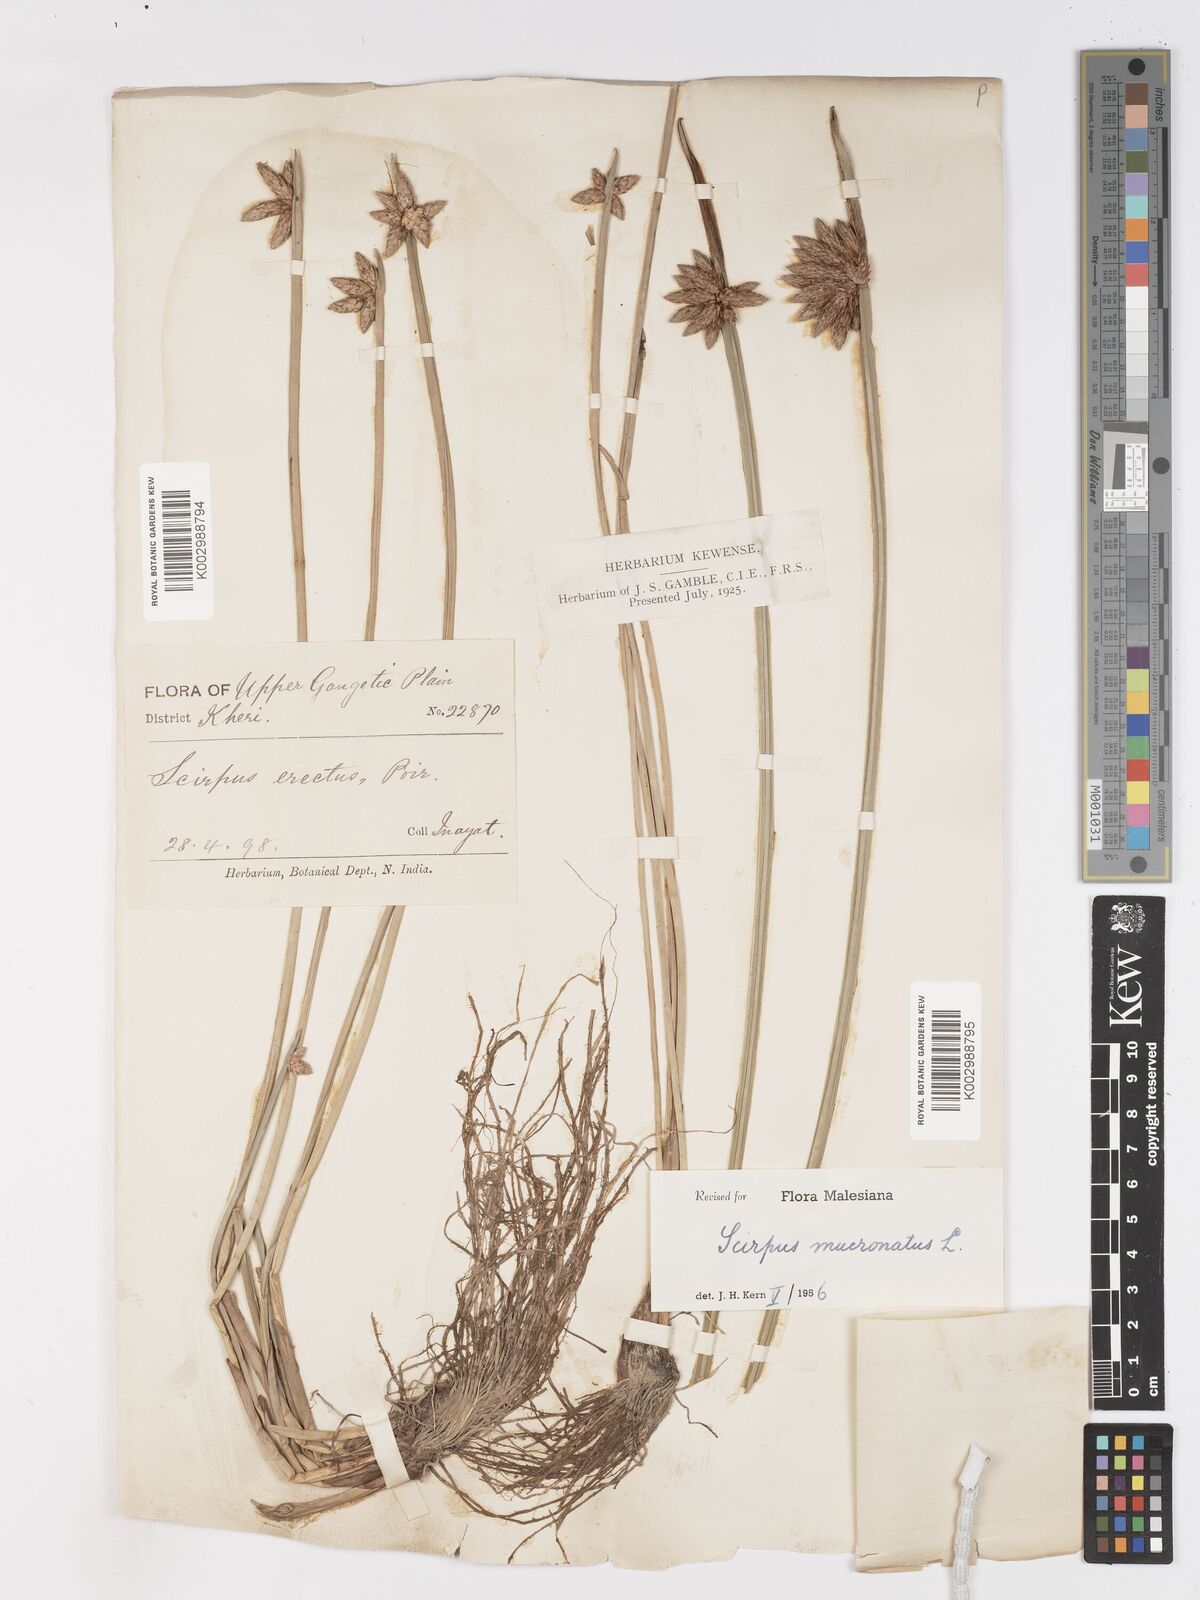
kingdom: Plantae
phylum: Tracheophyta
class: Liliopsida
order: Poales
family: Cyperaceae
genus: Schoenoplectiella
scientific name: Schoenoplectiella mucronata
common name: Bog bulrush
